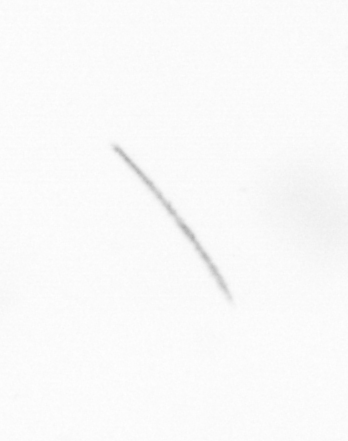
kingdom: Chromista
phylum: Ochrophyta
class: Bacillariophyceae
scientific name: Bacillariophyceae
